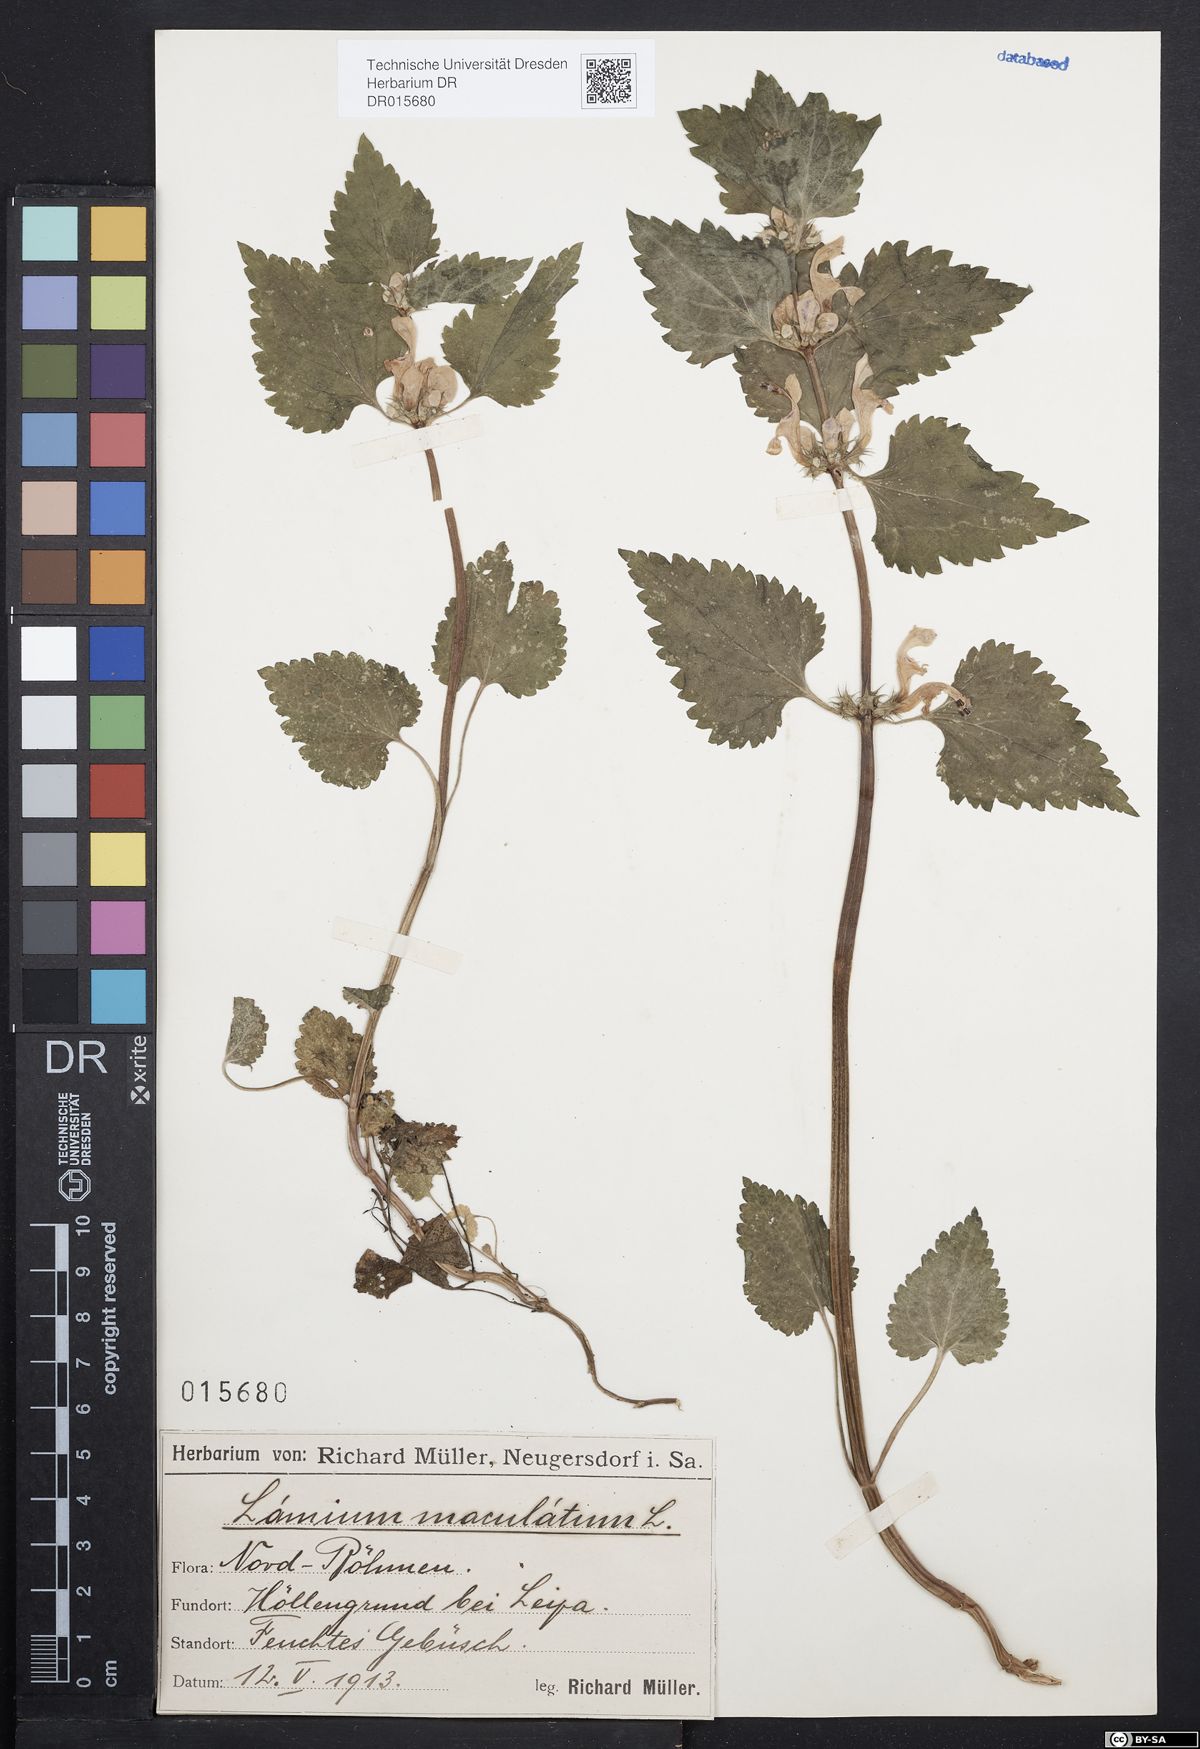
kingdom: Plantae
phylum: Tracheophyta
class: Magnoliopsida
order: Lamiales
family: Lamiaceae
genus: Lamium
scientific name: Lamium maculatum
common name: Spotted dead-nettle
